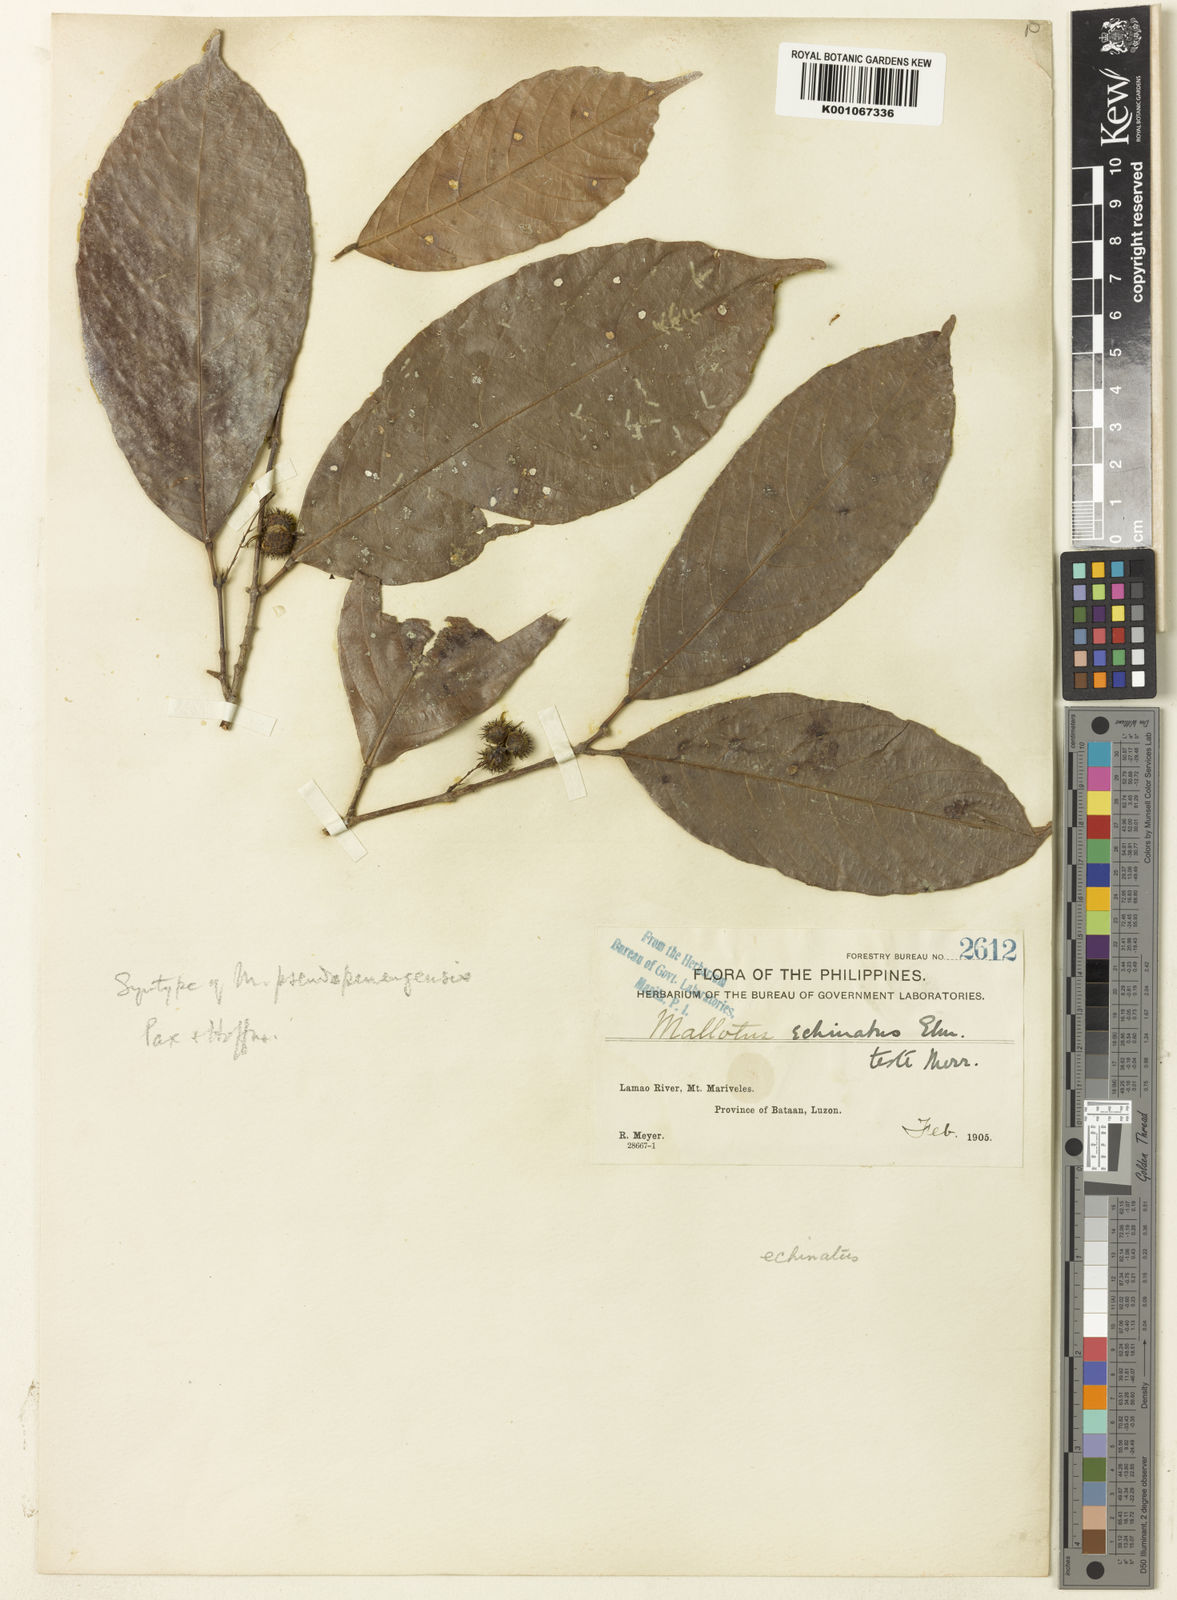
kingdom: Plantae
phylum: Tracheophyta
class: Magnoliopsida
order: Malpighiales
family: Euphorbiaceae
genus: Hancea
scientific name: Hancea penangensis
